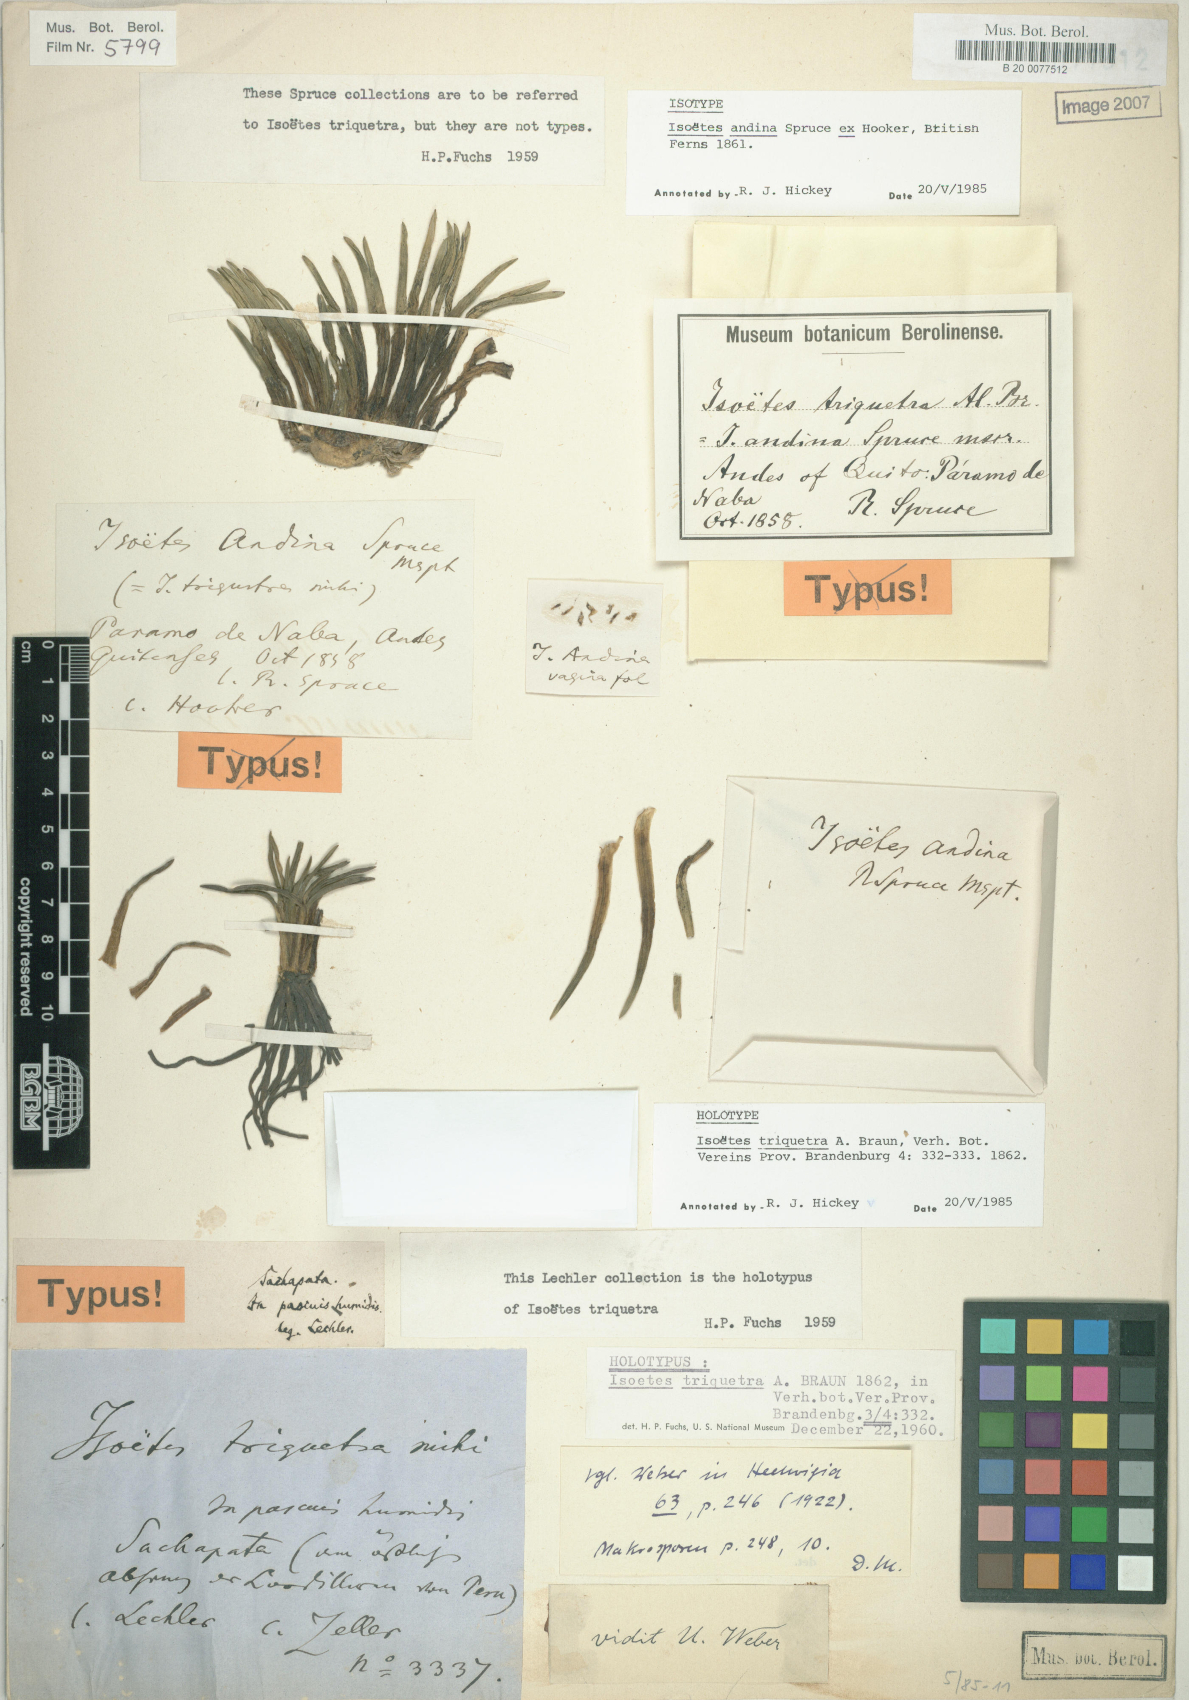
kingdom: Plantae
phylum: Tracheophyta
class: Lycopodiopsida
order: Isoetales
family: Isoetaceae
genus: Isoetes
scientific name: Isoetes andina
